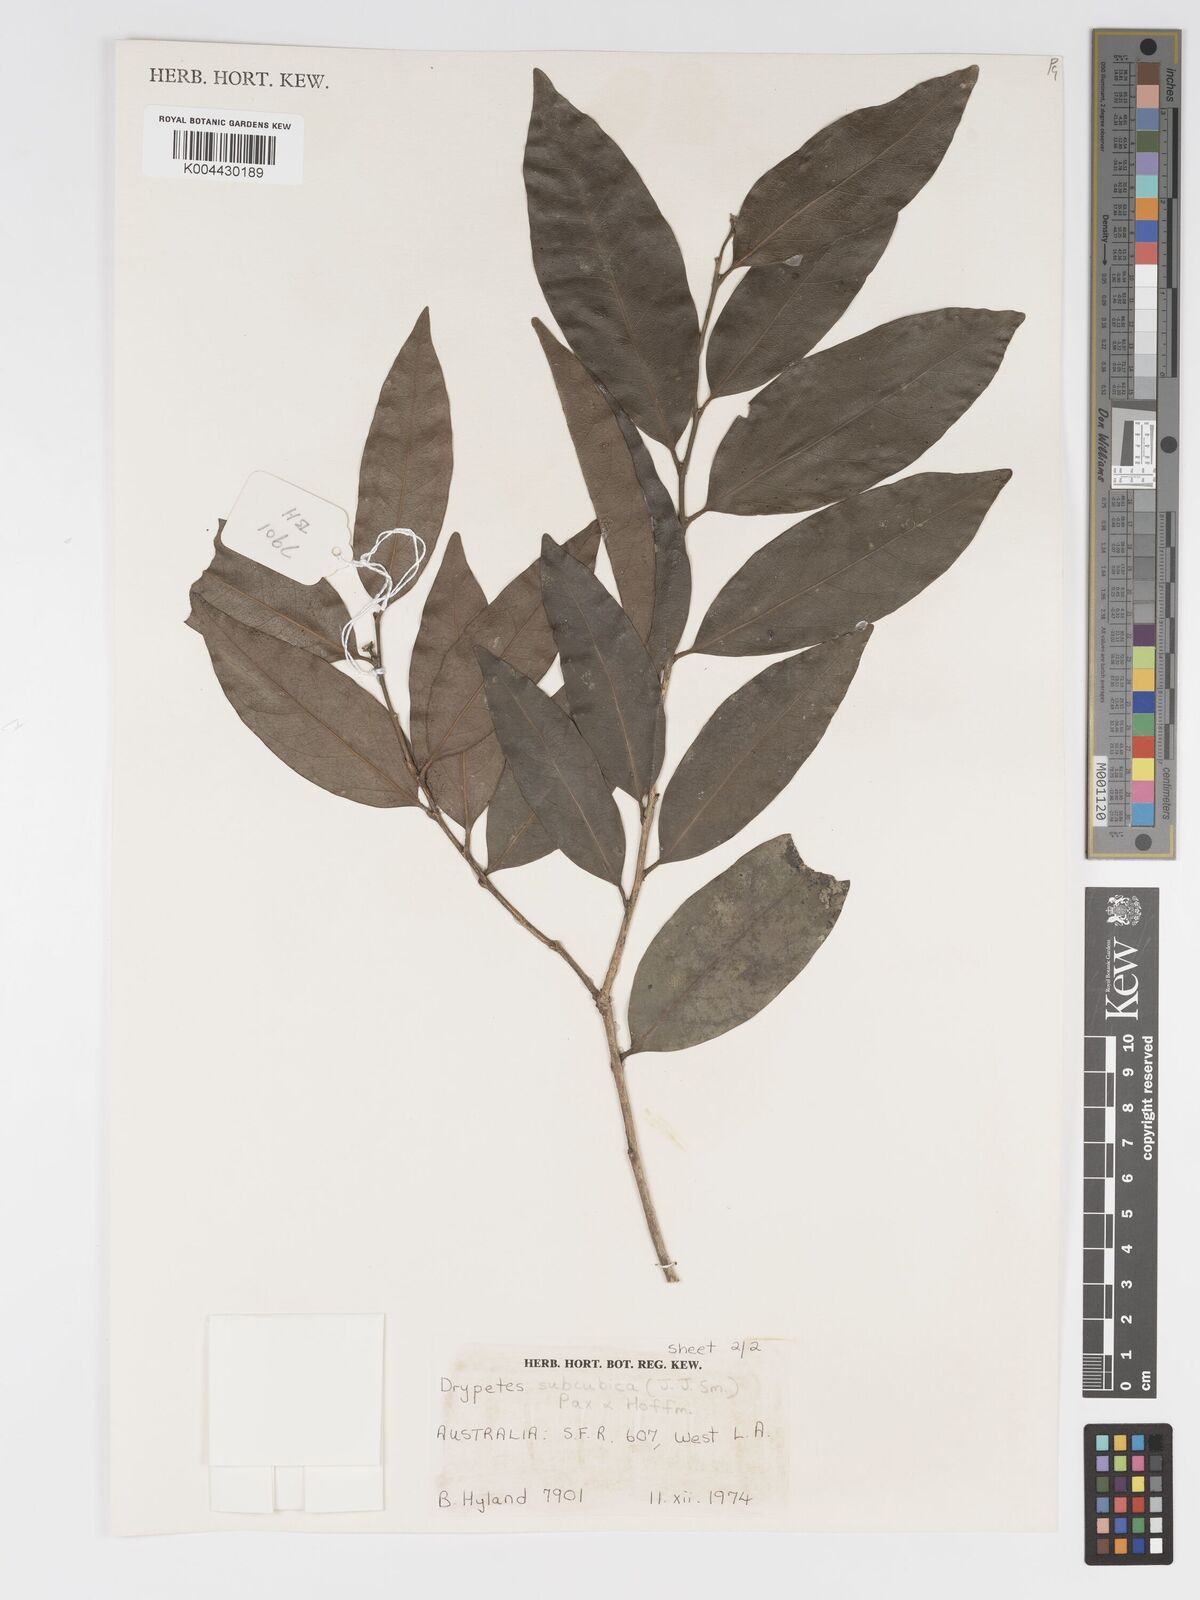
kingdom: Plantae
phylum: Tracheophyta
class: Magnoliopsida
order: Malpighiales
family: Putranjivaceae
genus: Drypetes
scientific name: Drypetes subcubica
